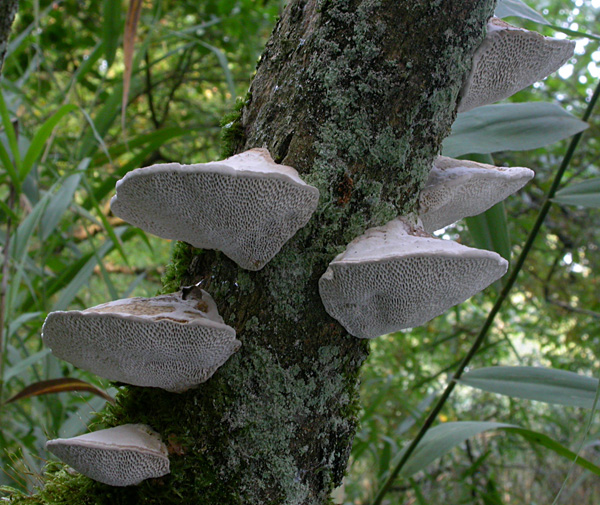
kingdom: Fungi
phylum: Basidiomycota
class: Agaricomycetes
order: Polyporales
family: Polyporaceae
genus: Daedaleopsis
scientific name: Daedaleopsis confragosa
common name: rødmende læderporesvamp
